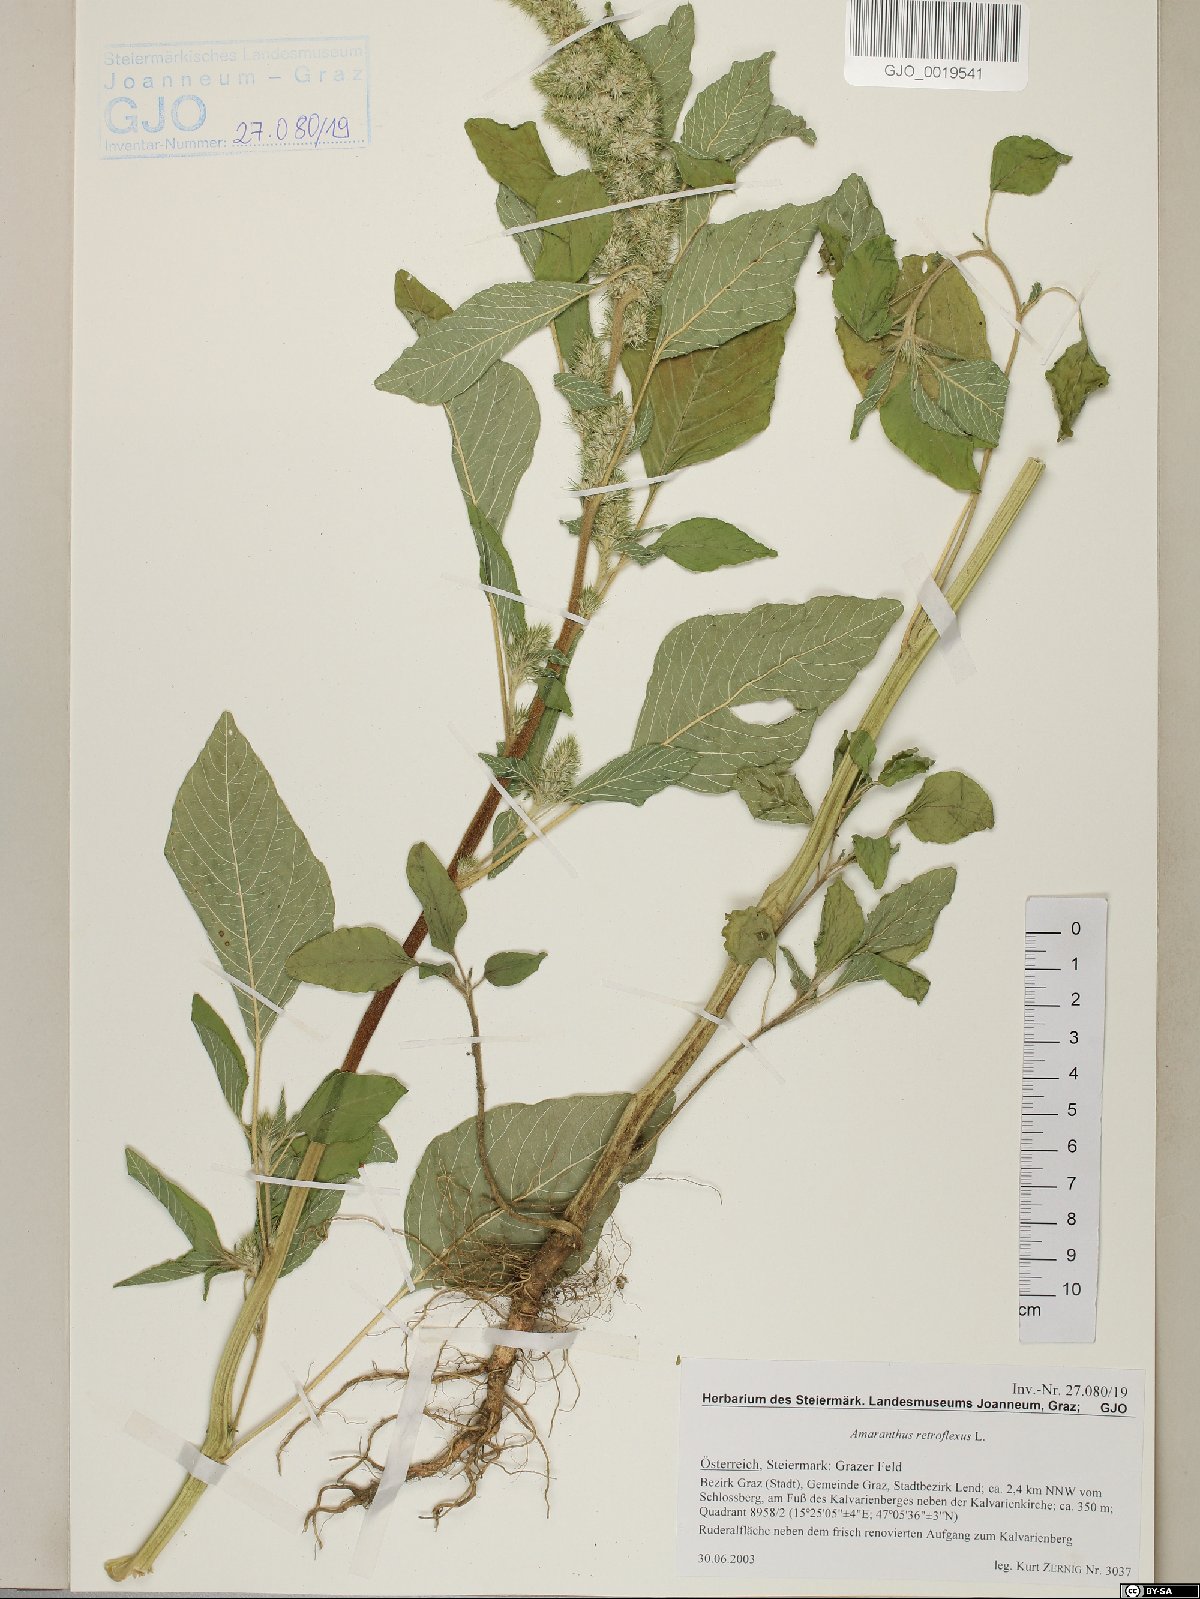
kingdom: Plantae
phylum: Tracheophyta
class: Magnoliopsida
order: Caryophyllales
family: Amaranthaceae
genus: Amaranthus
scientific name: Amaranthus retroflexus
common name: Redroot amaranth
